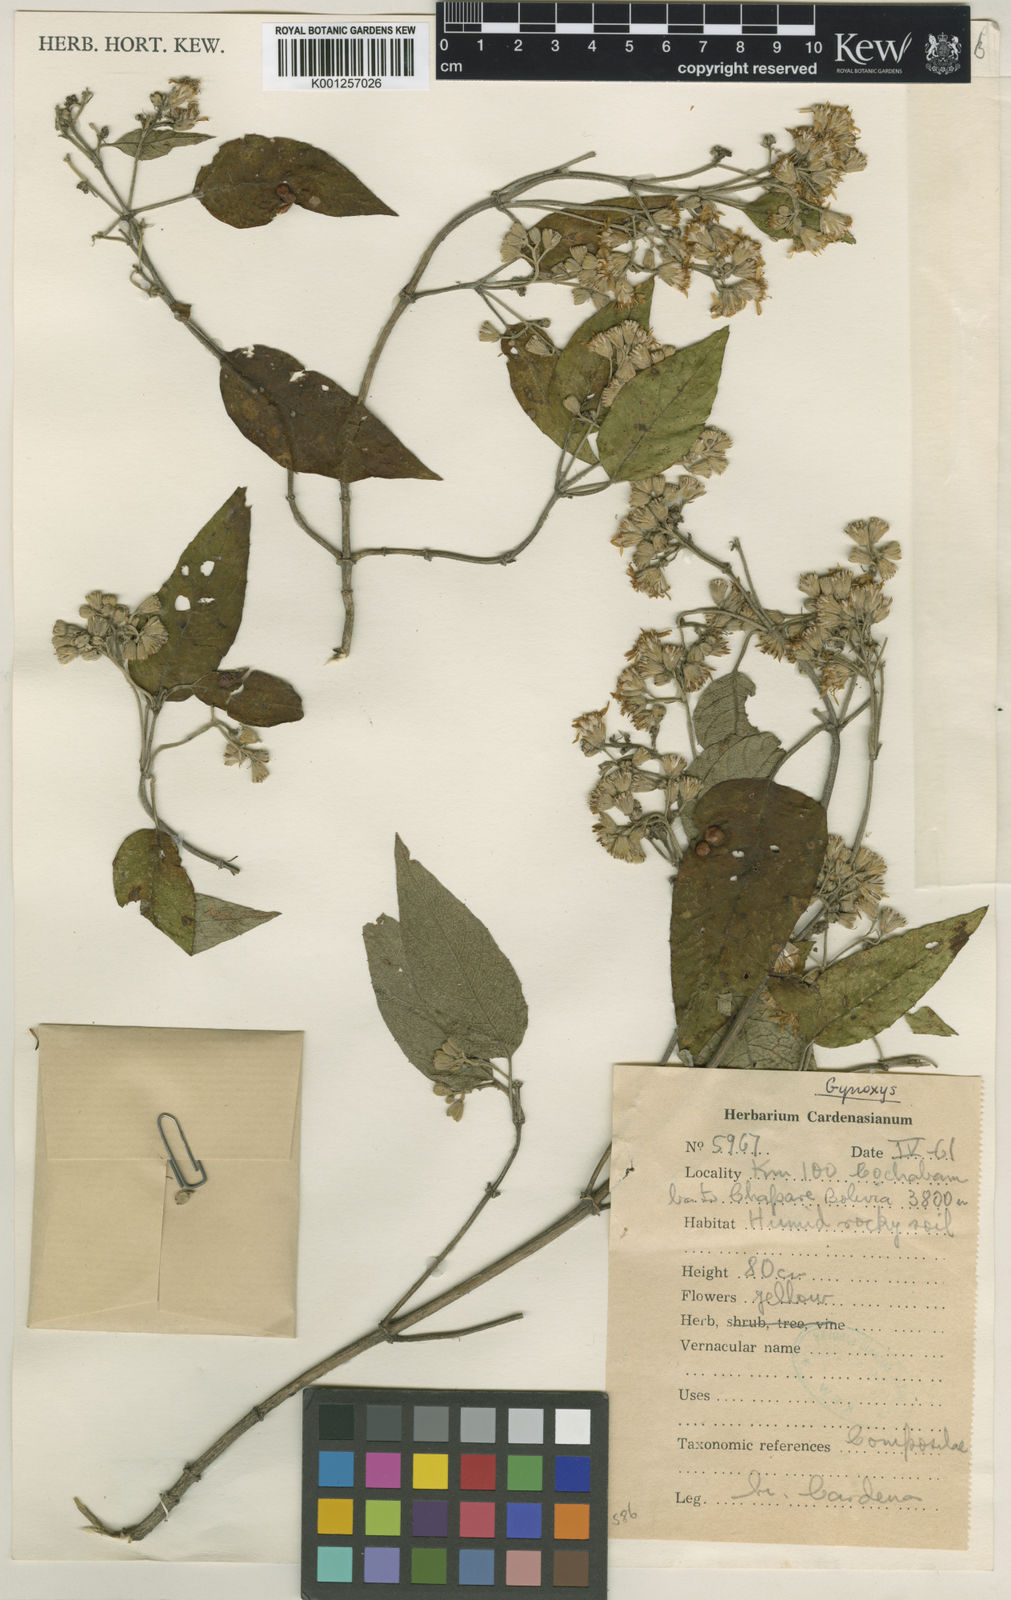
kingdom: Plantae
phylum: Tracheophyta
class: Magnoliopsida
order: Asterales
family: Asteraceae
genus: Gynoxys
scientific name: Gynoxys asterotricha
